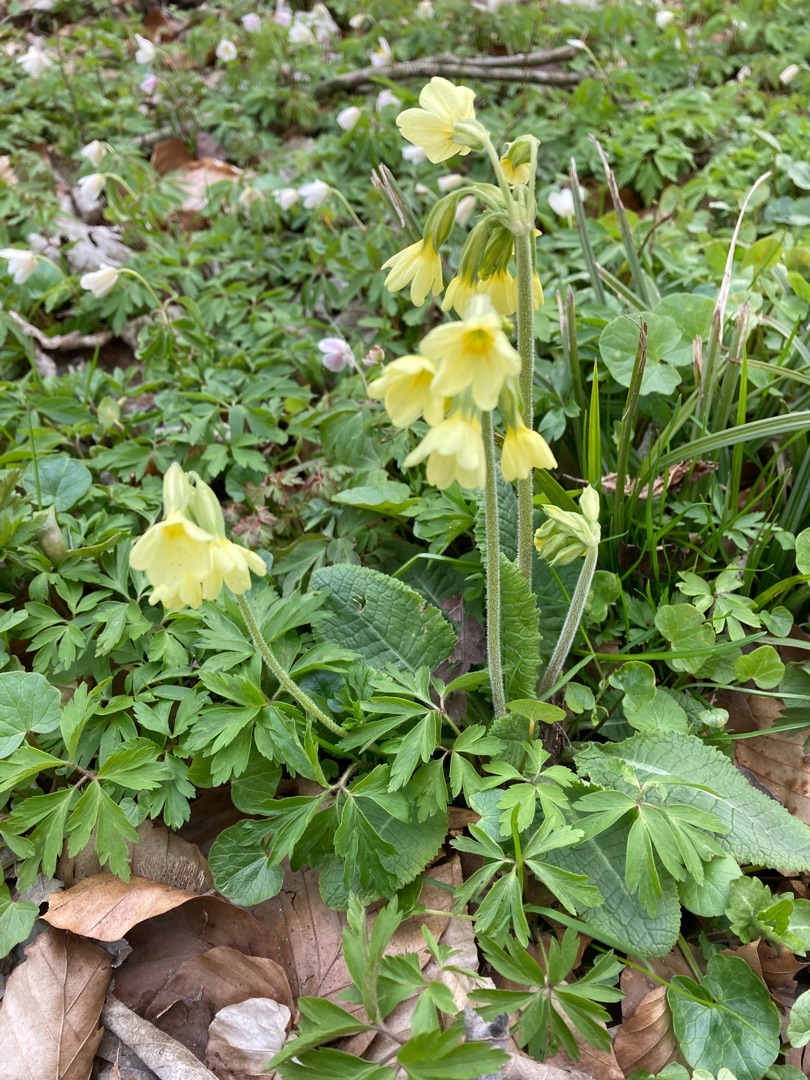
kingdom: Plantae
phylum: Tracheophyta
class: Magnoliopsida
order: Ericales
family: Primulaceae
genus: Primula
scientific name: Primula elatior
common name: Fladkravet kodriver
